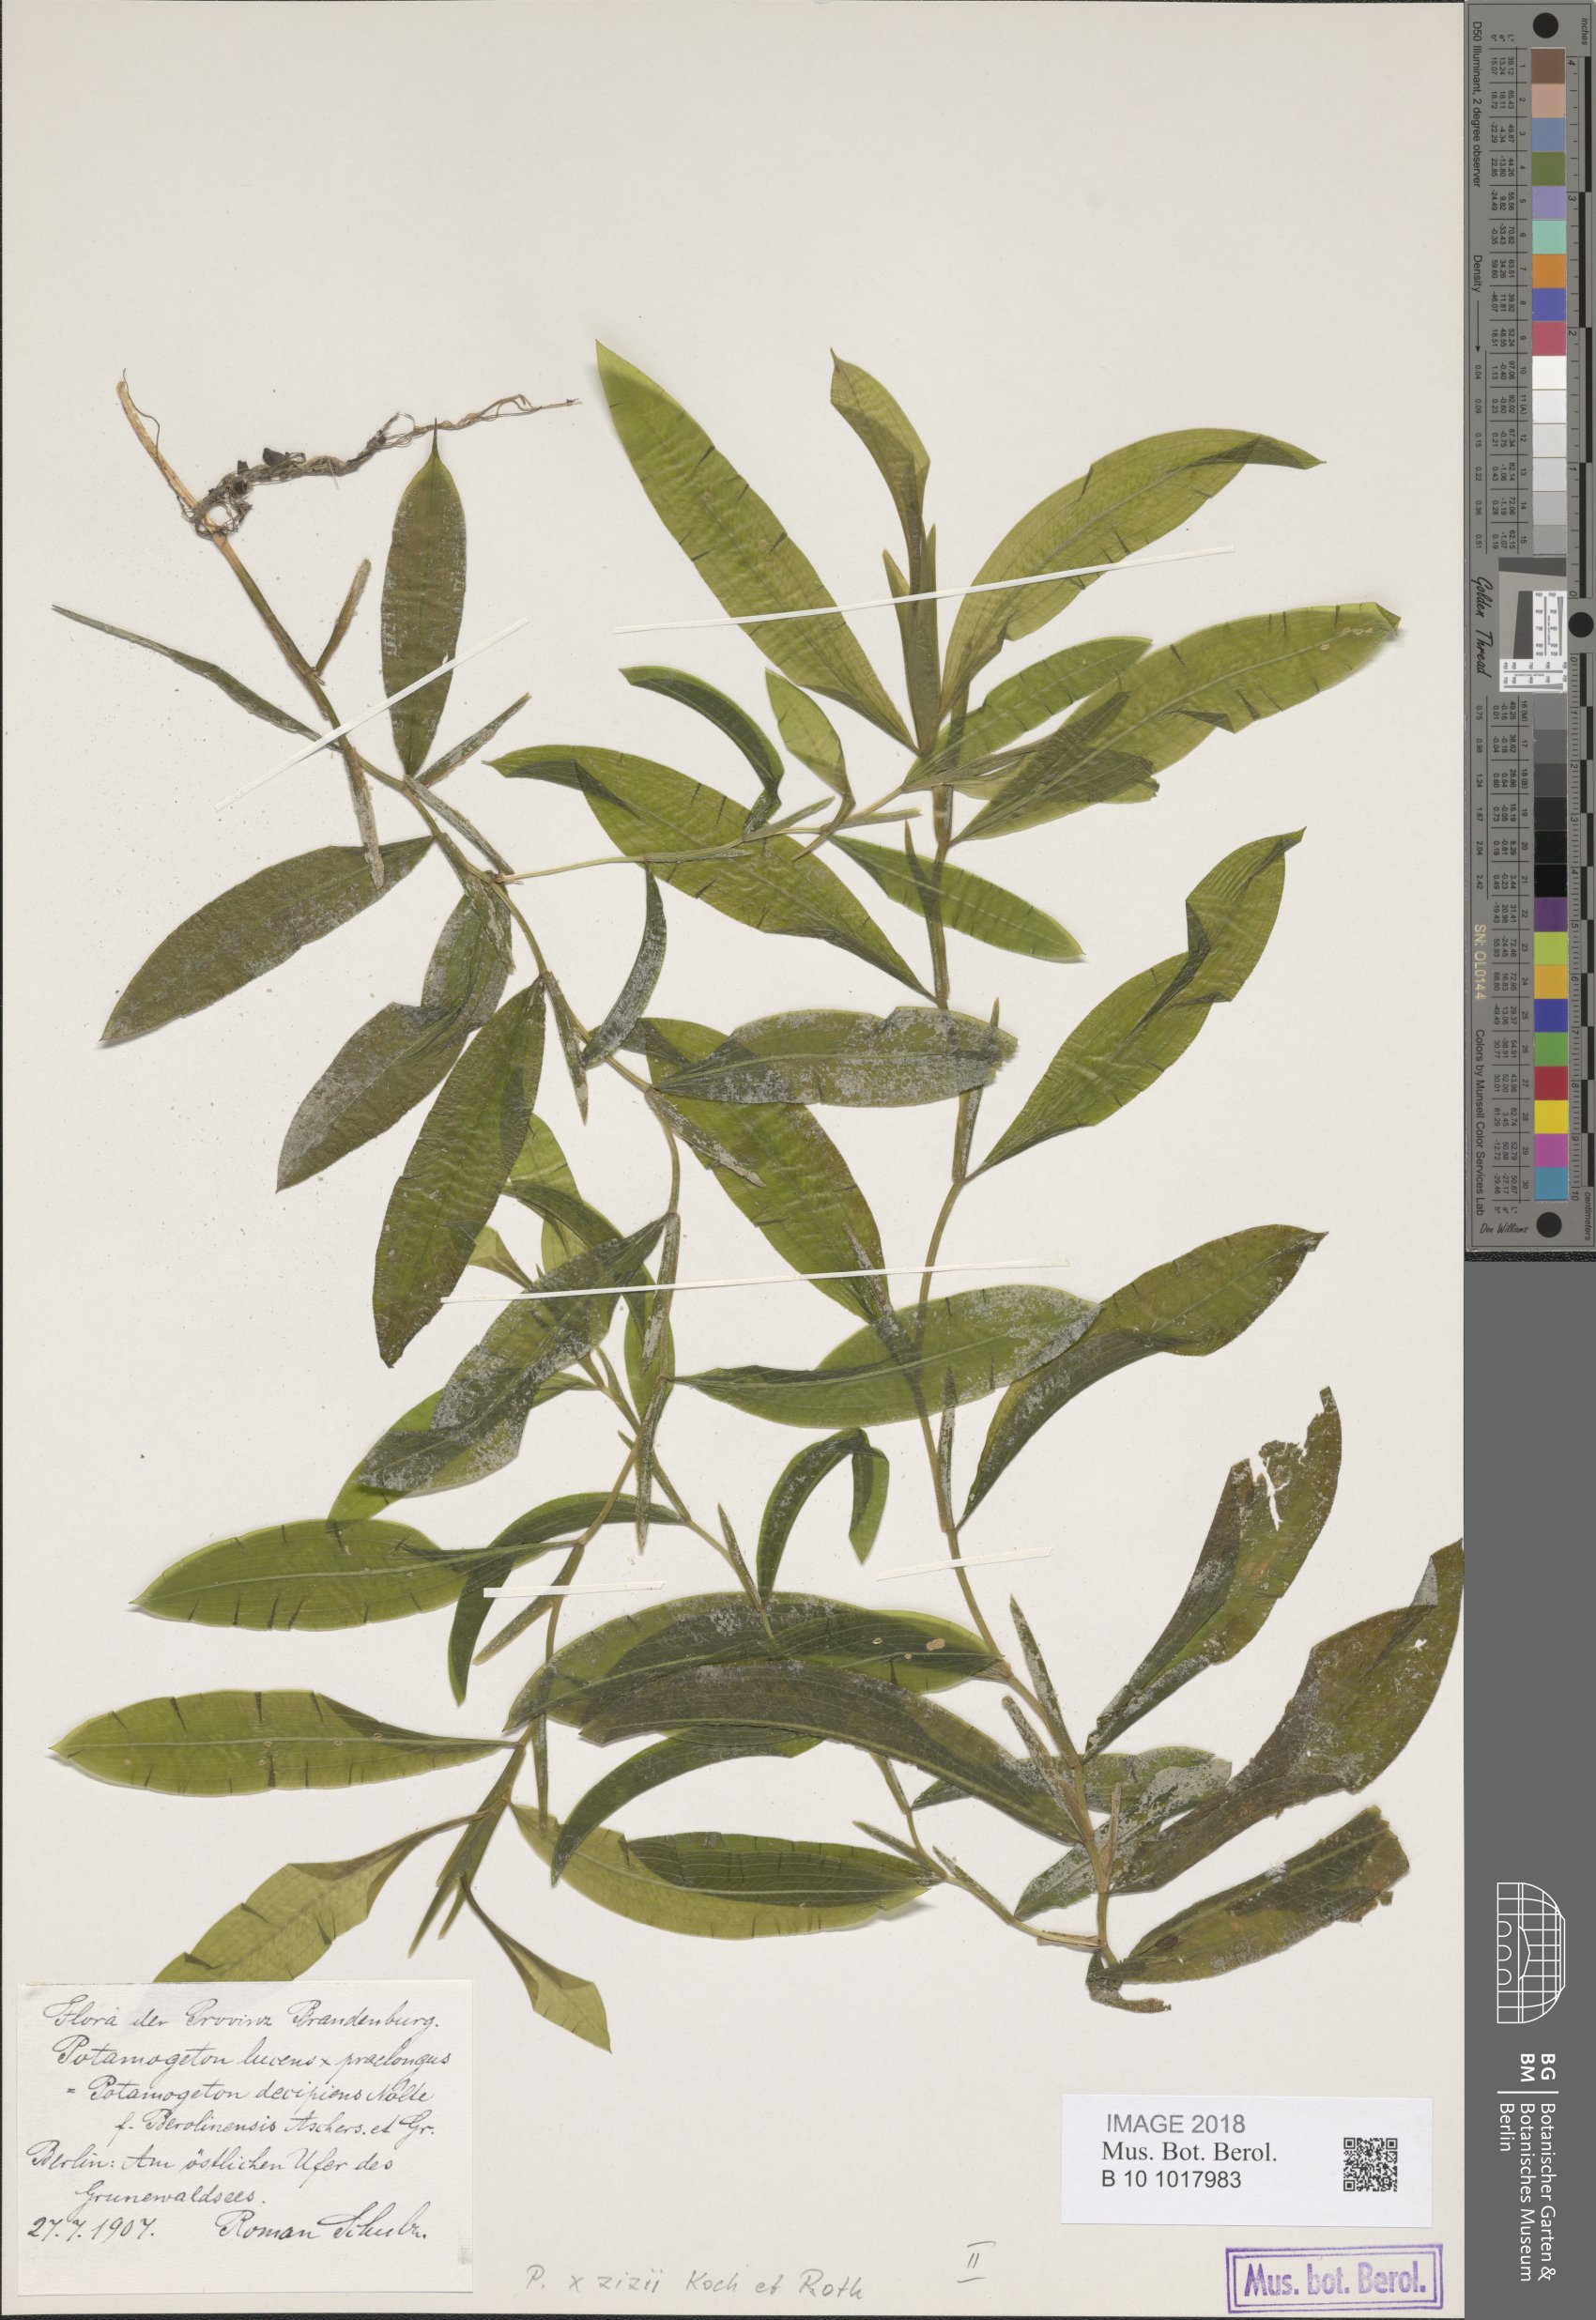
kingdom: Plantae
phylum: Tracheophyta
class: Liliopsida
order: Alismatales
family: Potamogetonaceae
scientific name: Potamogetonaceae
